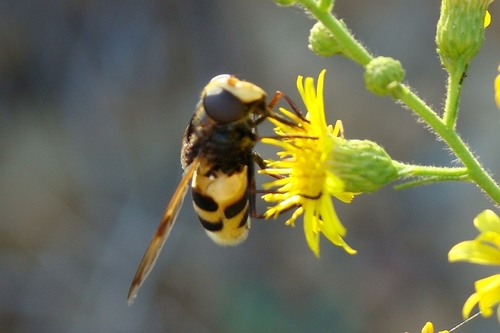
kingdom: Animalia
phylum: Arthropoda
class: Insecta
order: Diptera
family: Syrphidae
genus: Volucella
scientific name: Volucella elegans
